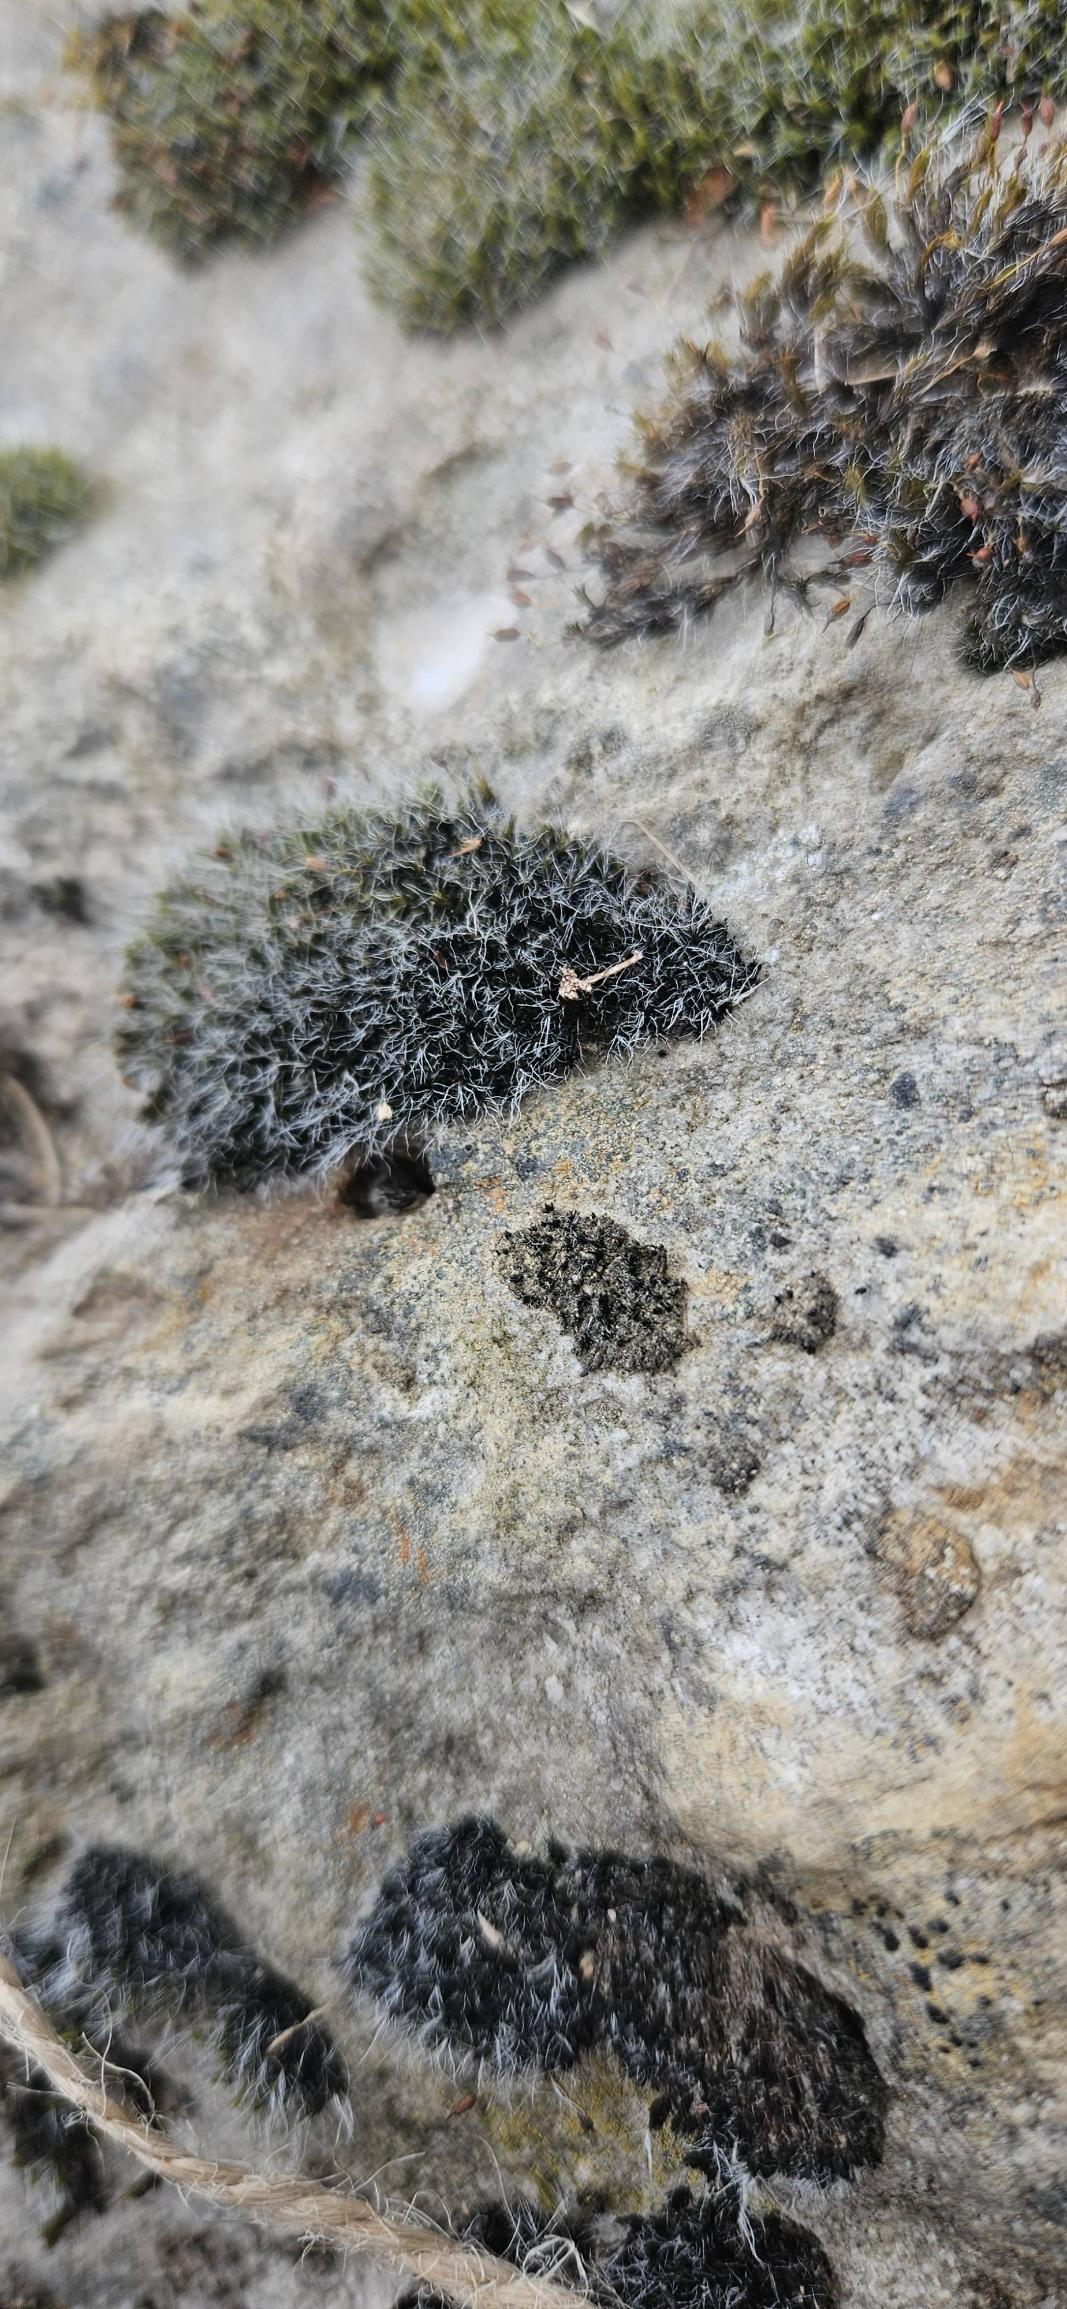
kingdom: Plantae
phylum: Bryophyta
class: Bryopsida
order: Grimmiales
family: Grimmiaceae
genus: Grimmia
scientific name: Grimmia pulvinata
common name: Pude-gråmos
